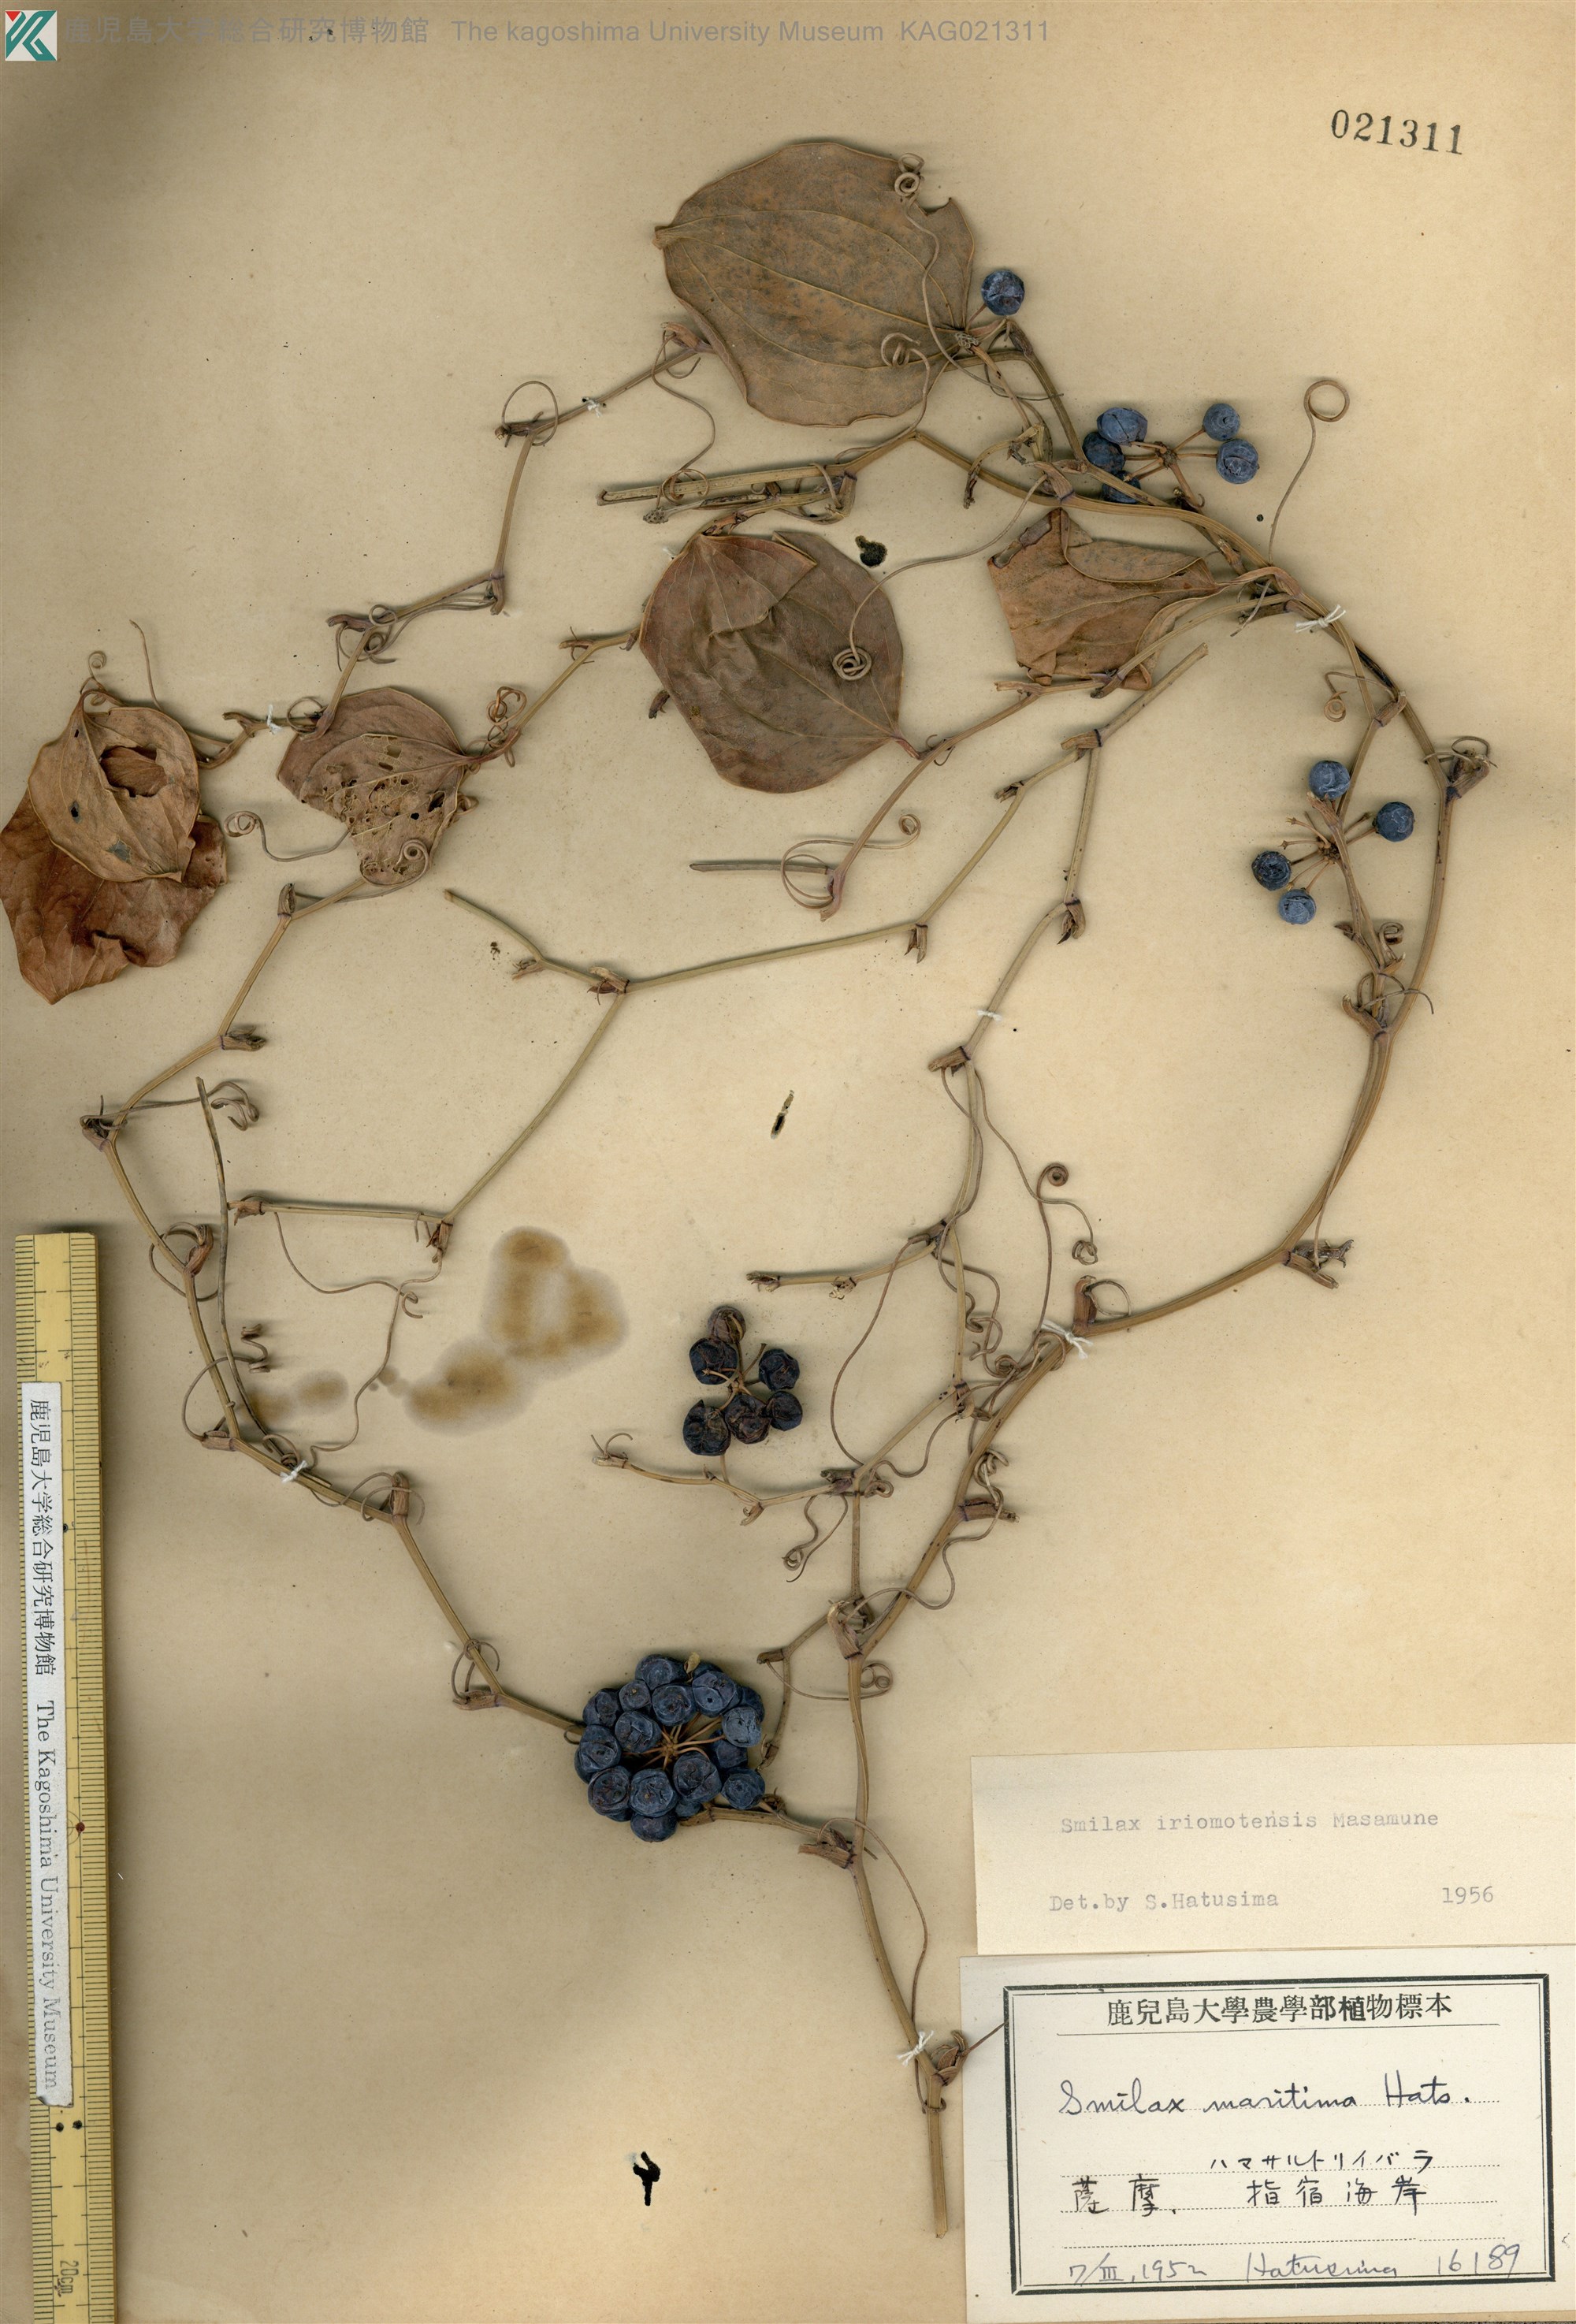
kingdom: Plantae
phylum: Tracheophyta
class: Liliopsida
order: Liliales
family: Smilacaceae
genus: Smilax
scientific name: Smilax sebeana
